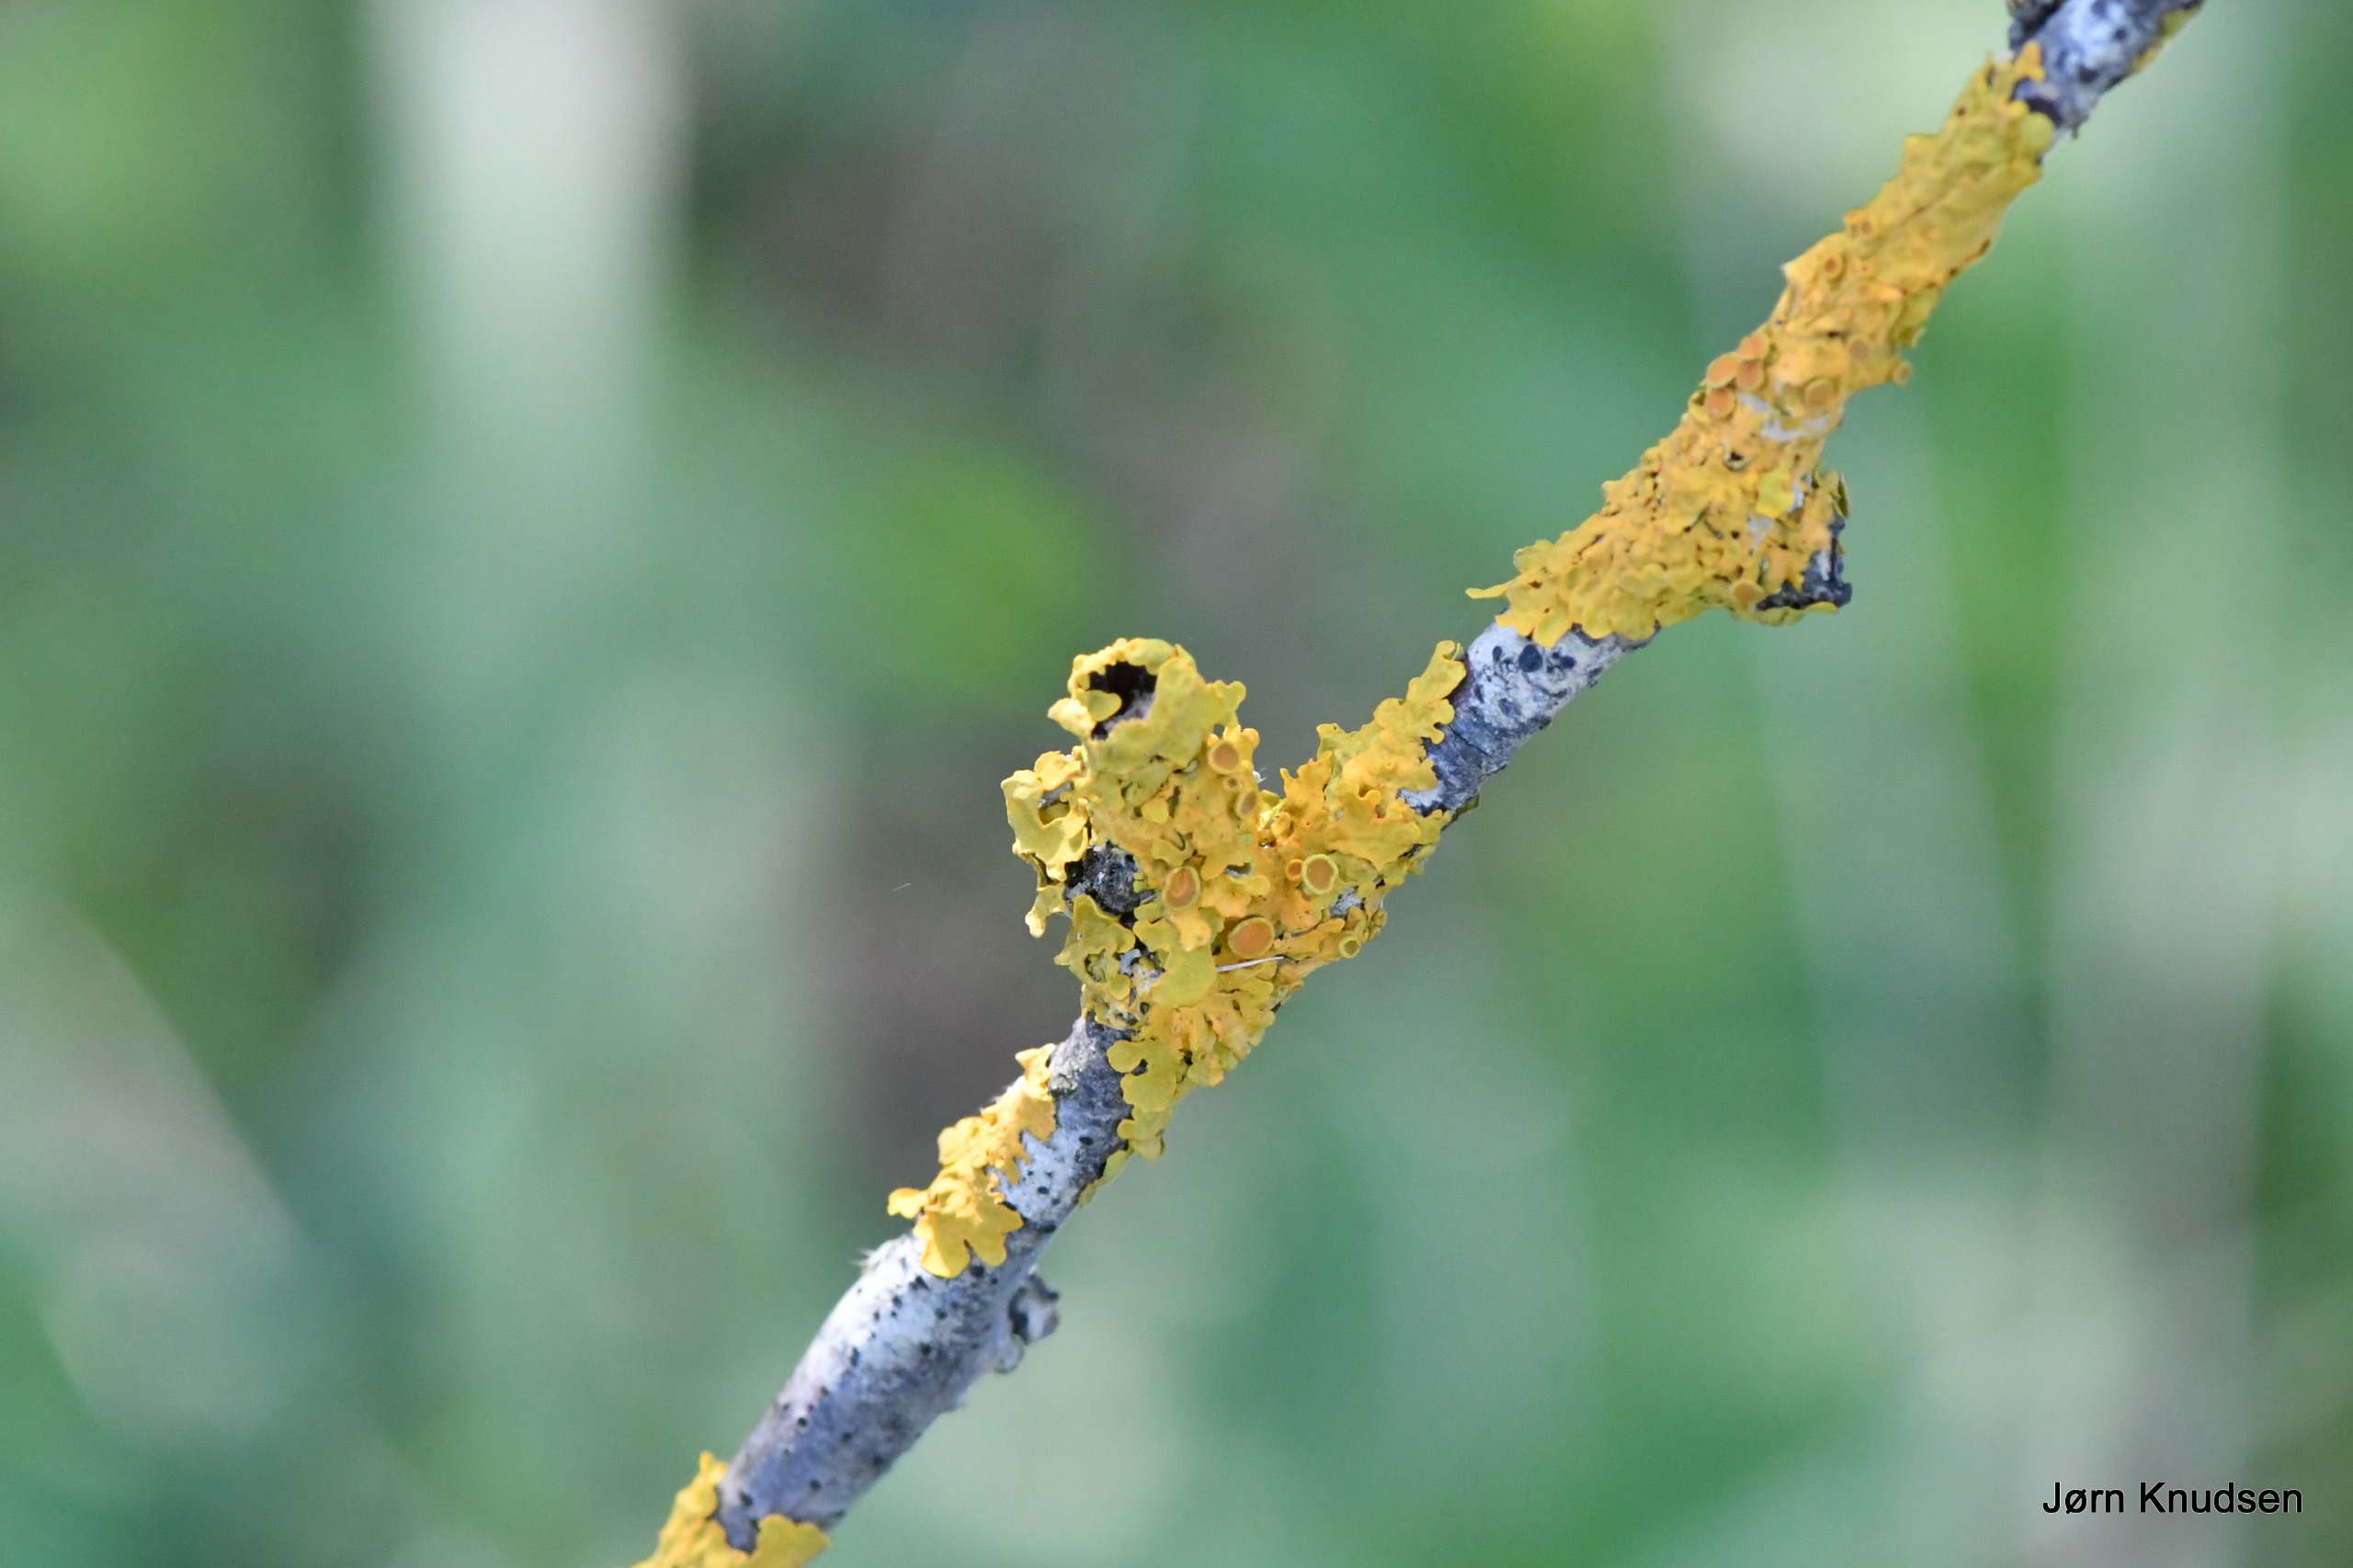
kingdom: Fungi
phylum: Ascomycota
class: Lecanoromycetes
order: Teloschistales
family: Teloschistaceae
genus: Xanthoria
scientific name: Xanthoria parietina
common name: Almindelig væggelav
